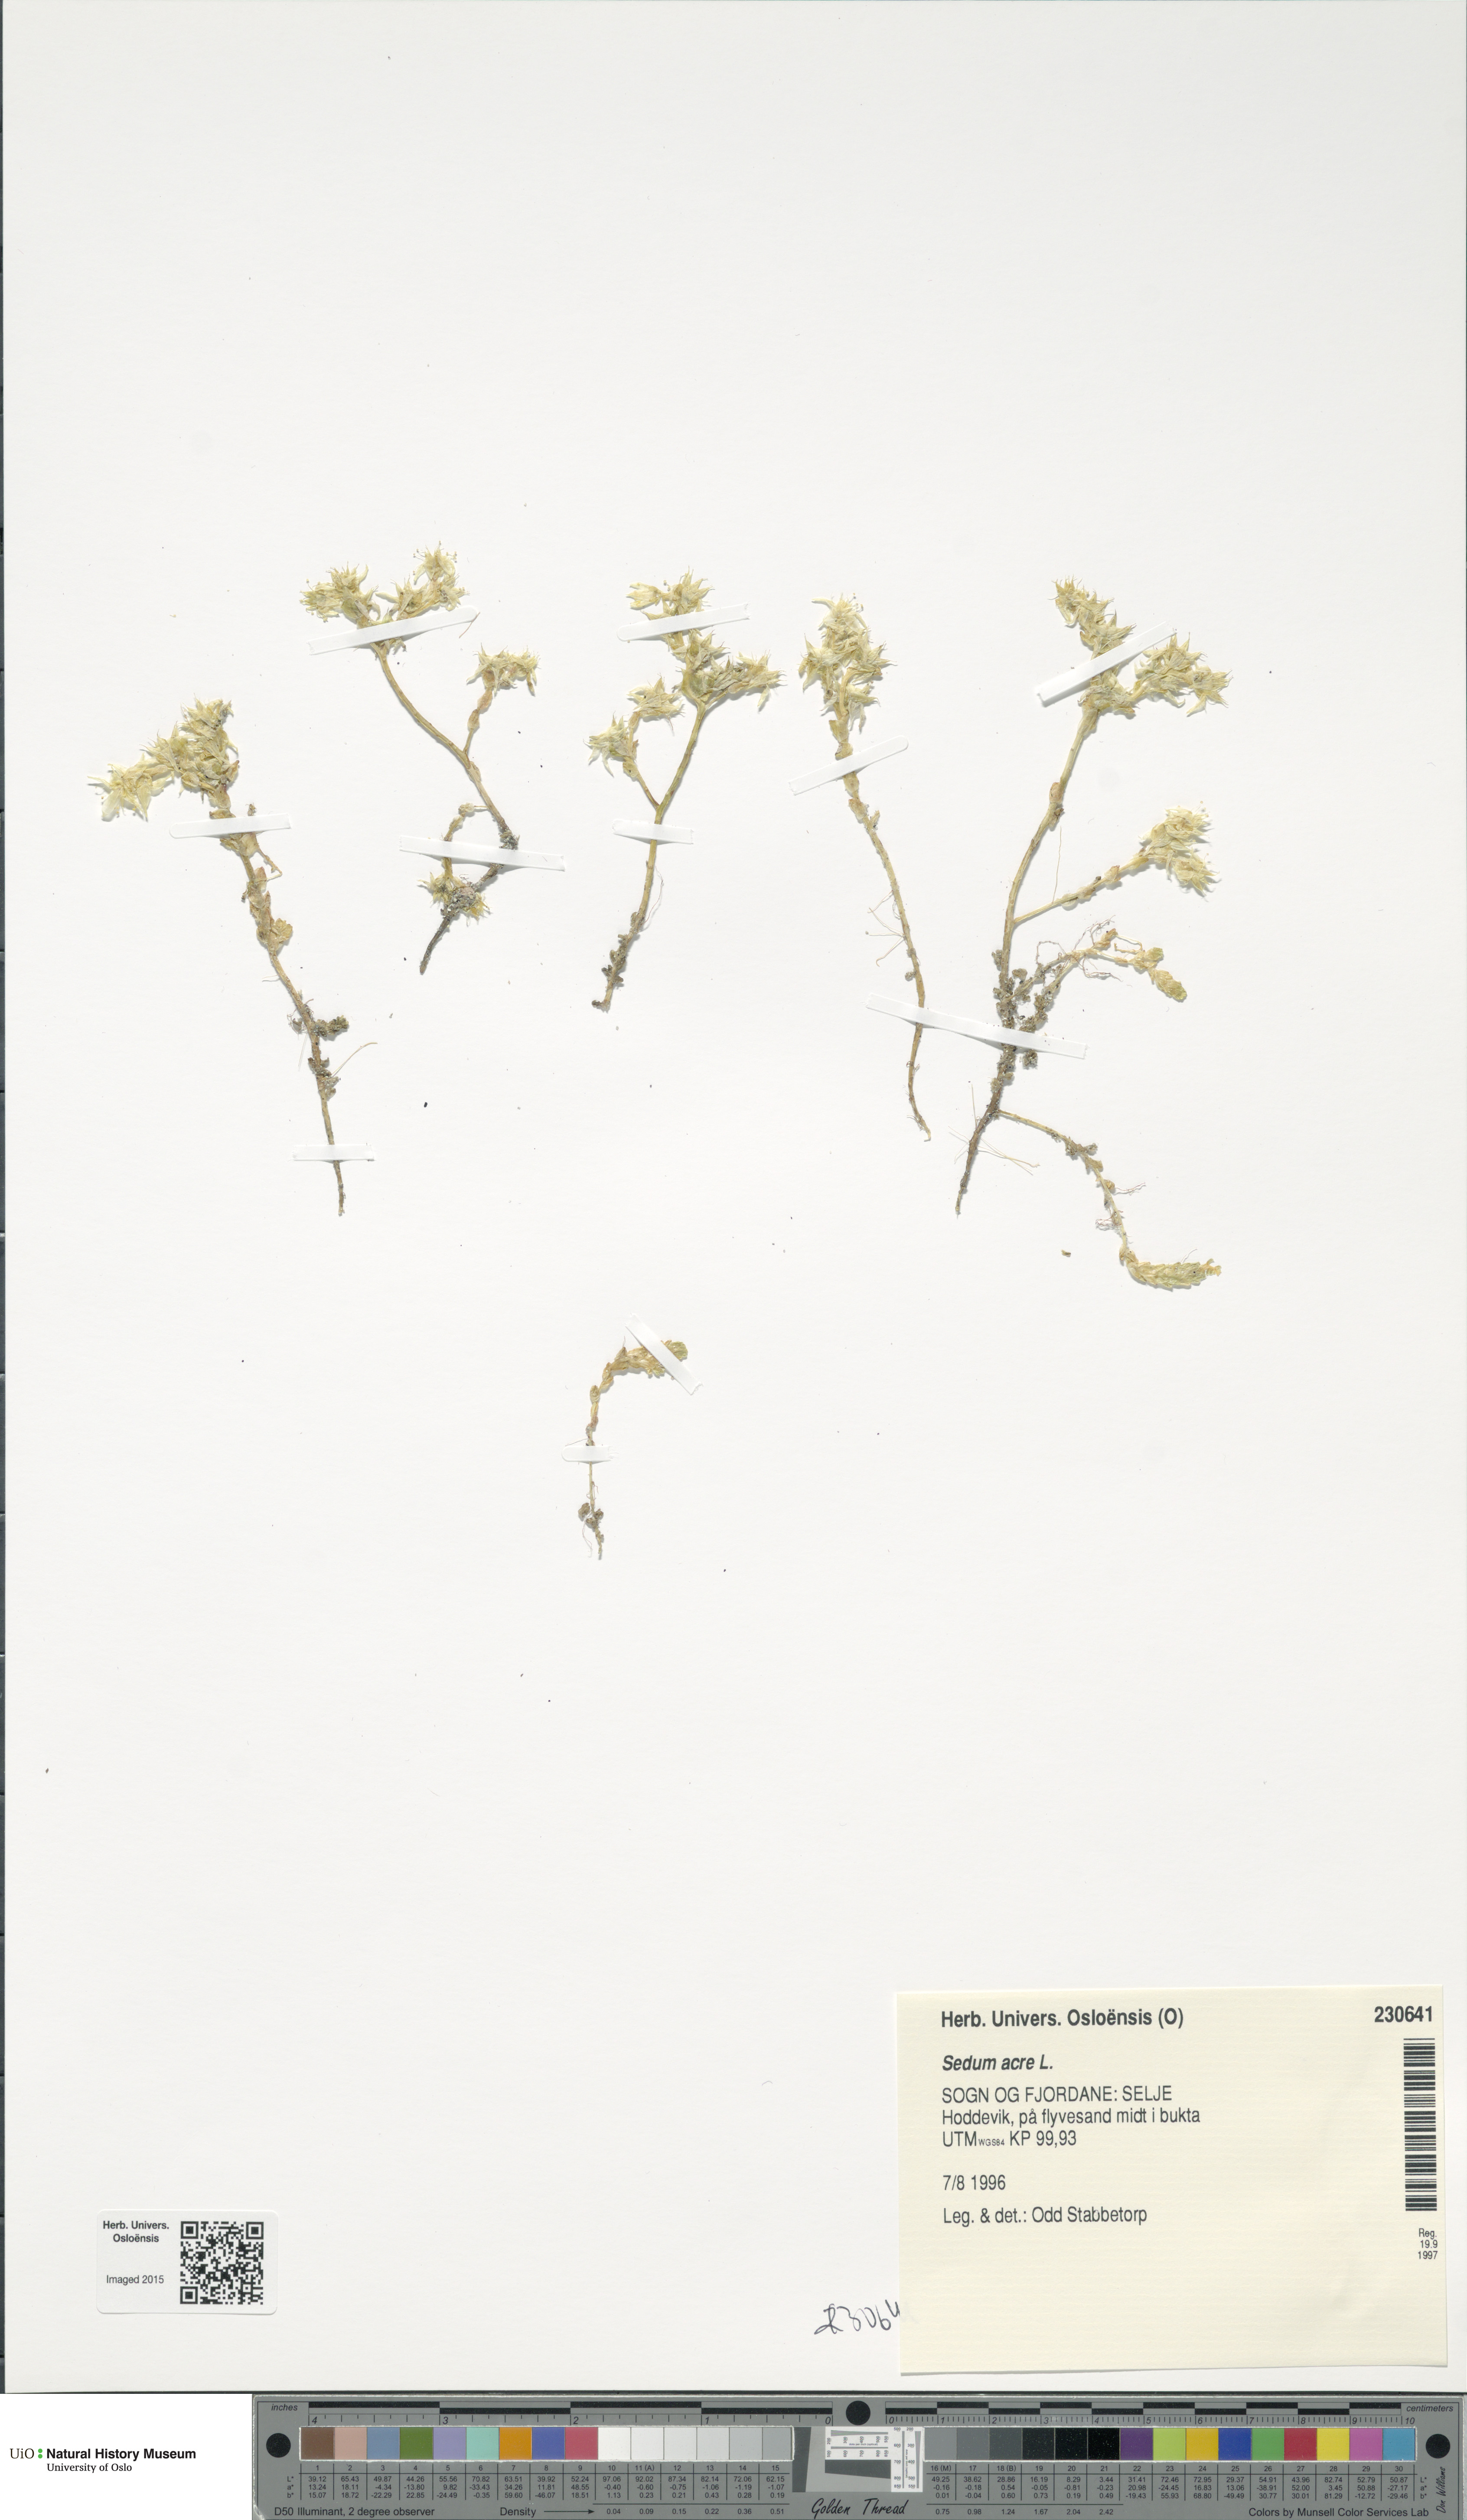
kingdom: Plantae
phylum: Tracheophyta
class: Magnoliopsida
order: Saxifragales
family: Crassulaceae
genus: Sedum
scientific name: Sedum acre
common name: Biting stonecrop
